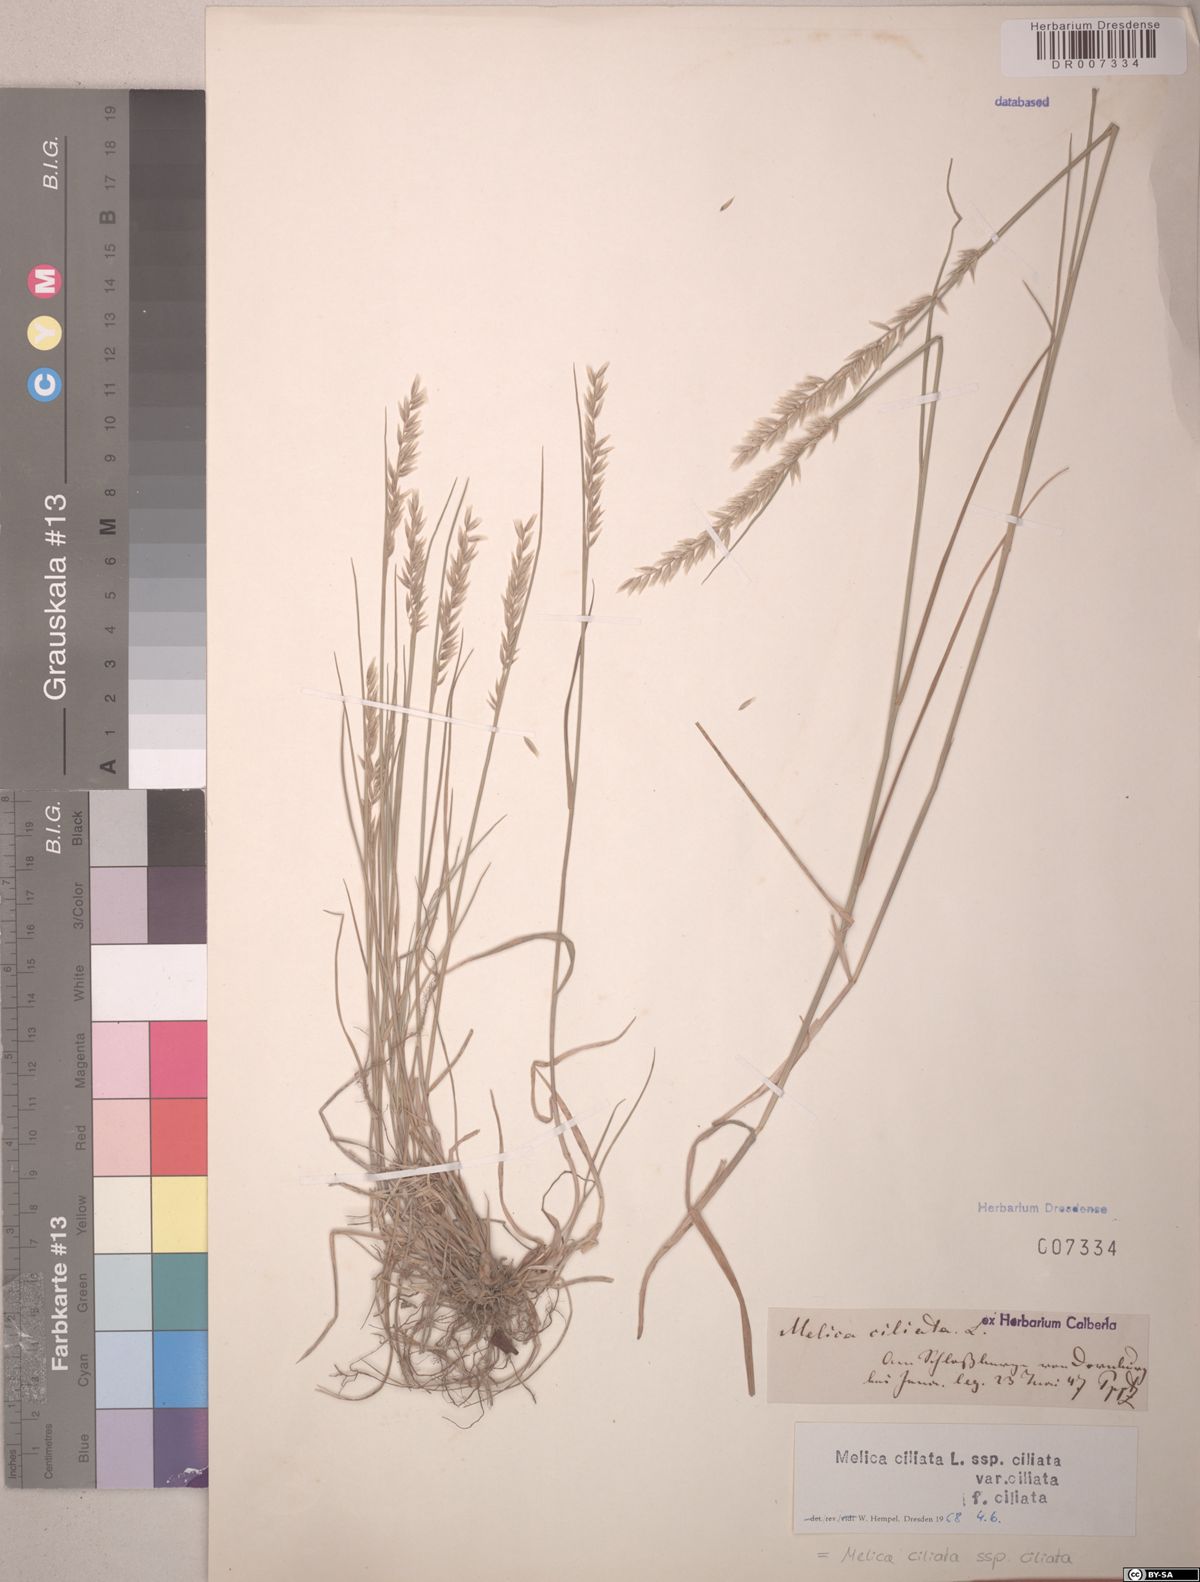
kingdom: Plantae
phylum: Tracheophyta
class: Liliopsida
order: Poales
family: Poaceae
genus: Melica
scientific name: Melica ciliata
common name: Hairy melicgrass
